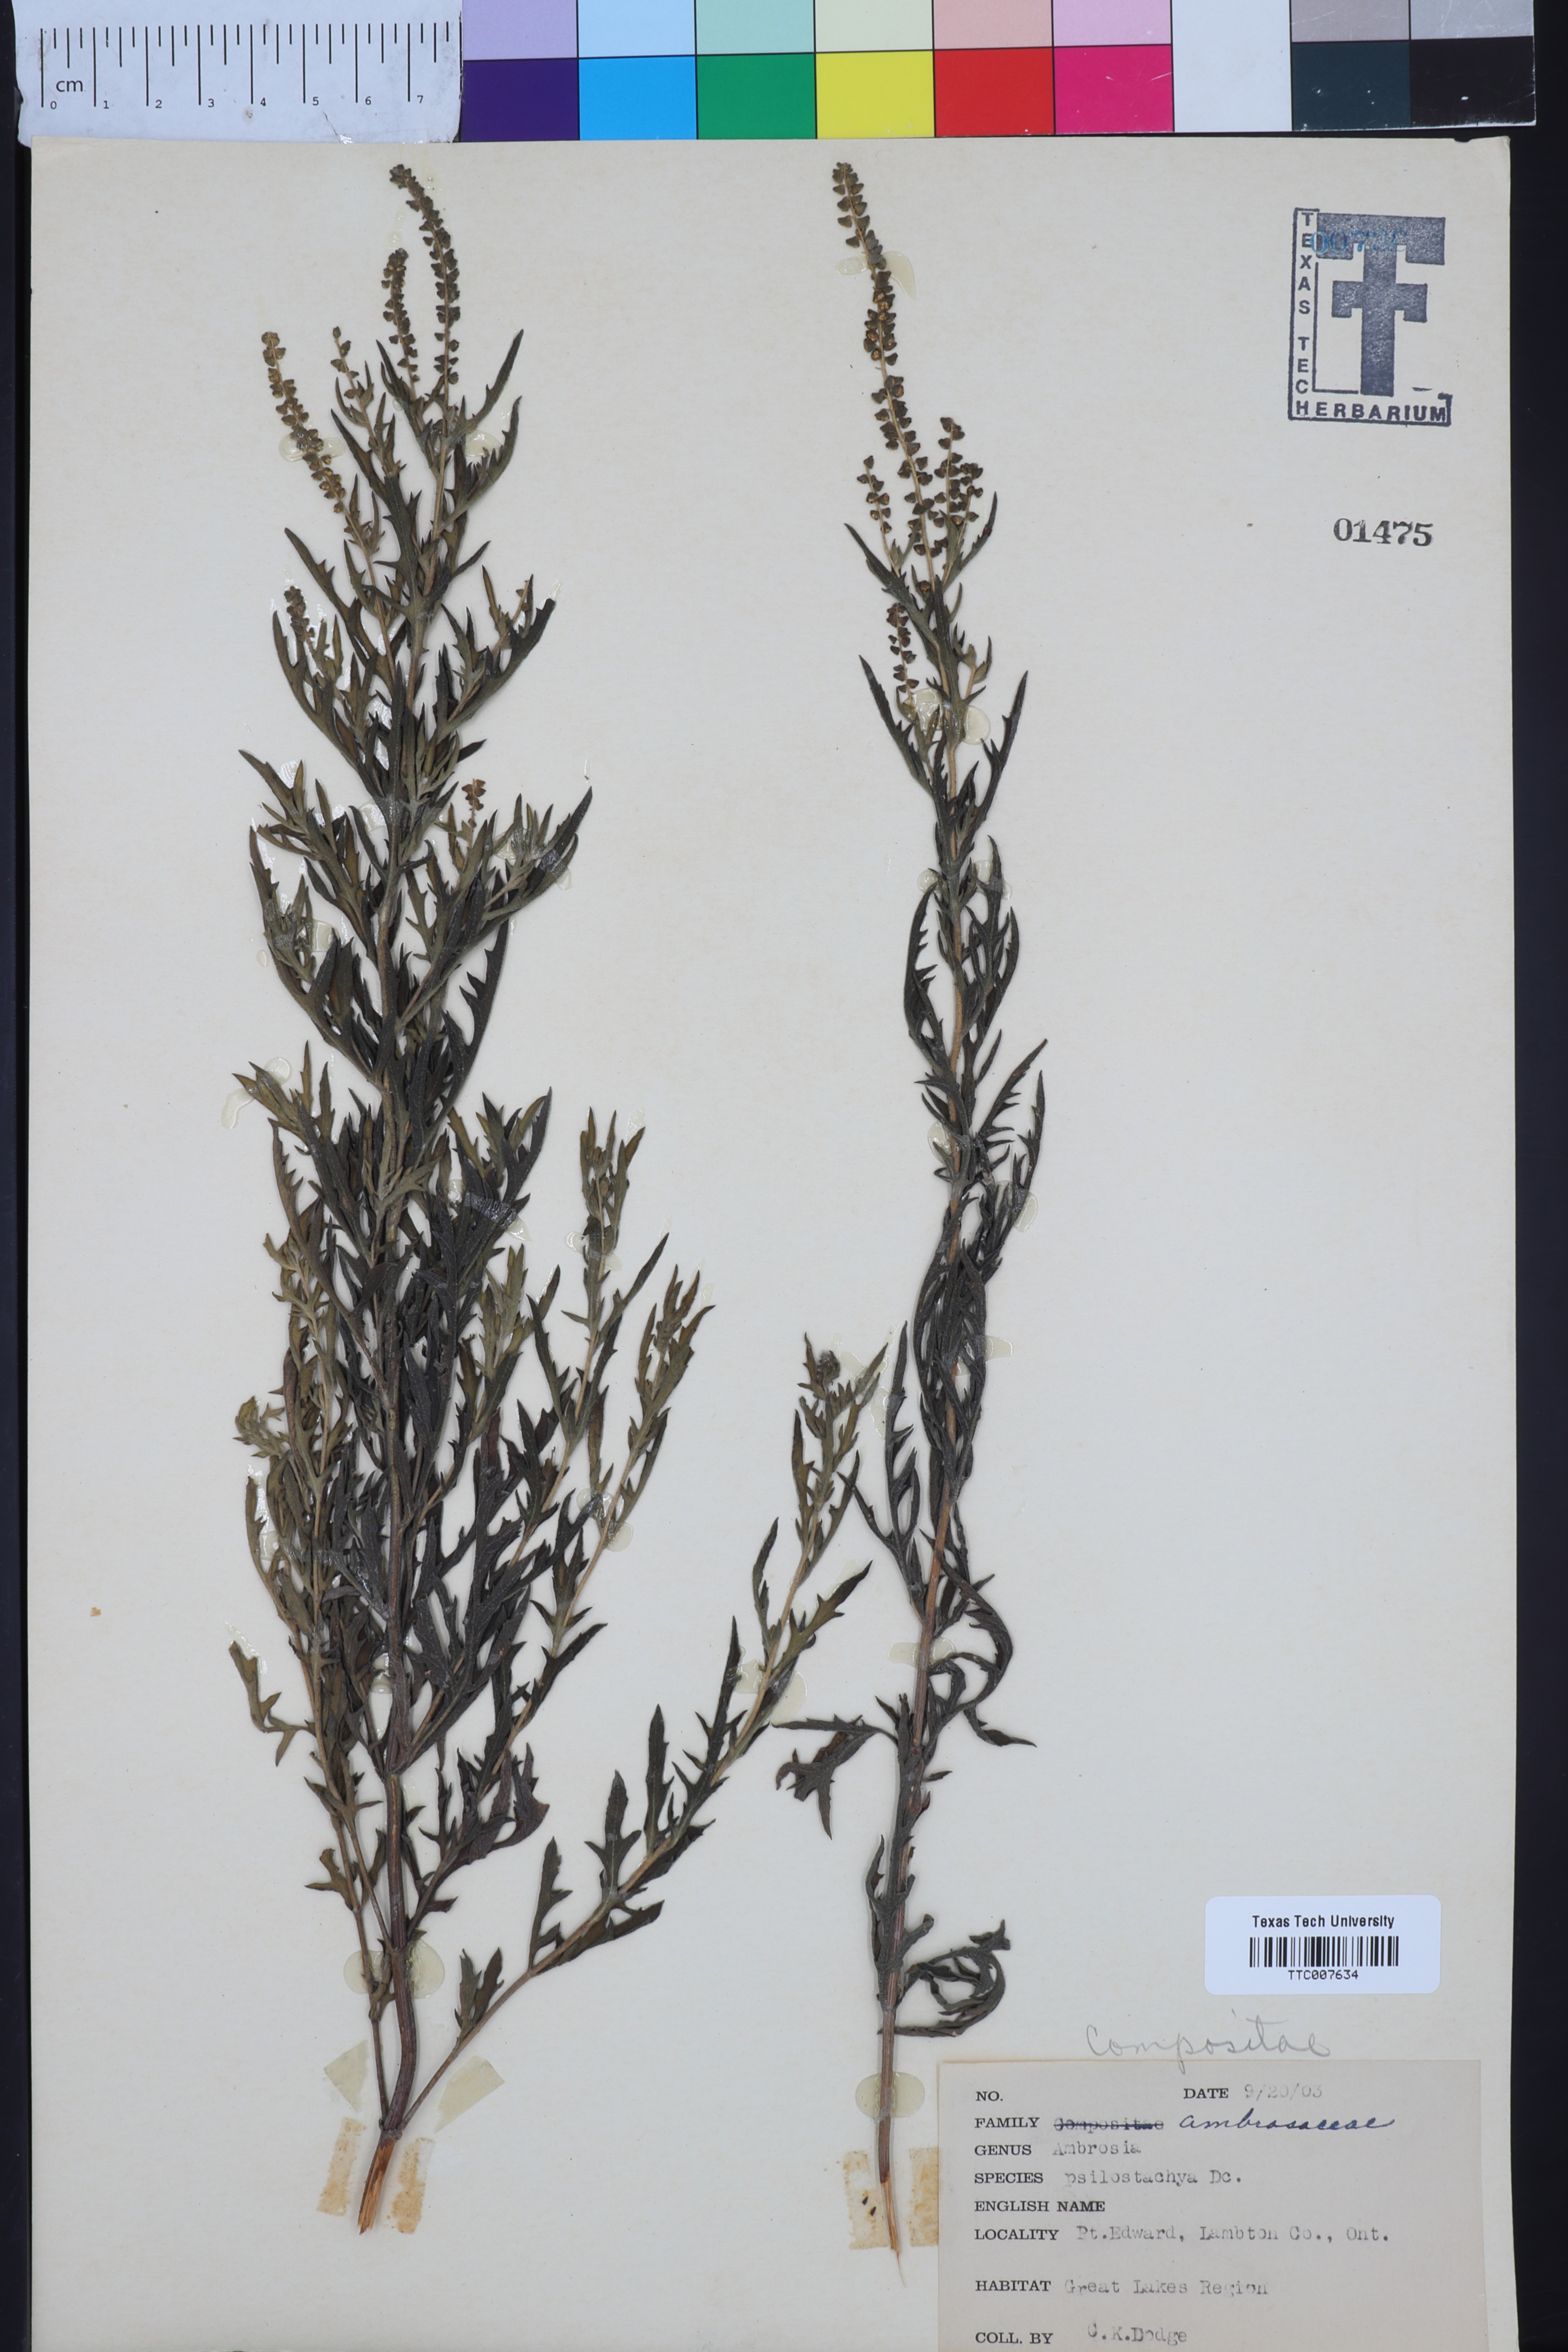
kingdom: Plantae
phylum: Tracheophyta
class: Magnoliopsida
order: Asterales
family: Asteraceae
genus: Ambrosia
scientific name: Ambrosia psilostachya
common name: Perennial ragweed
